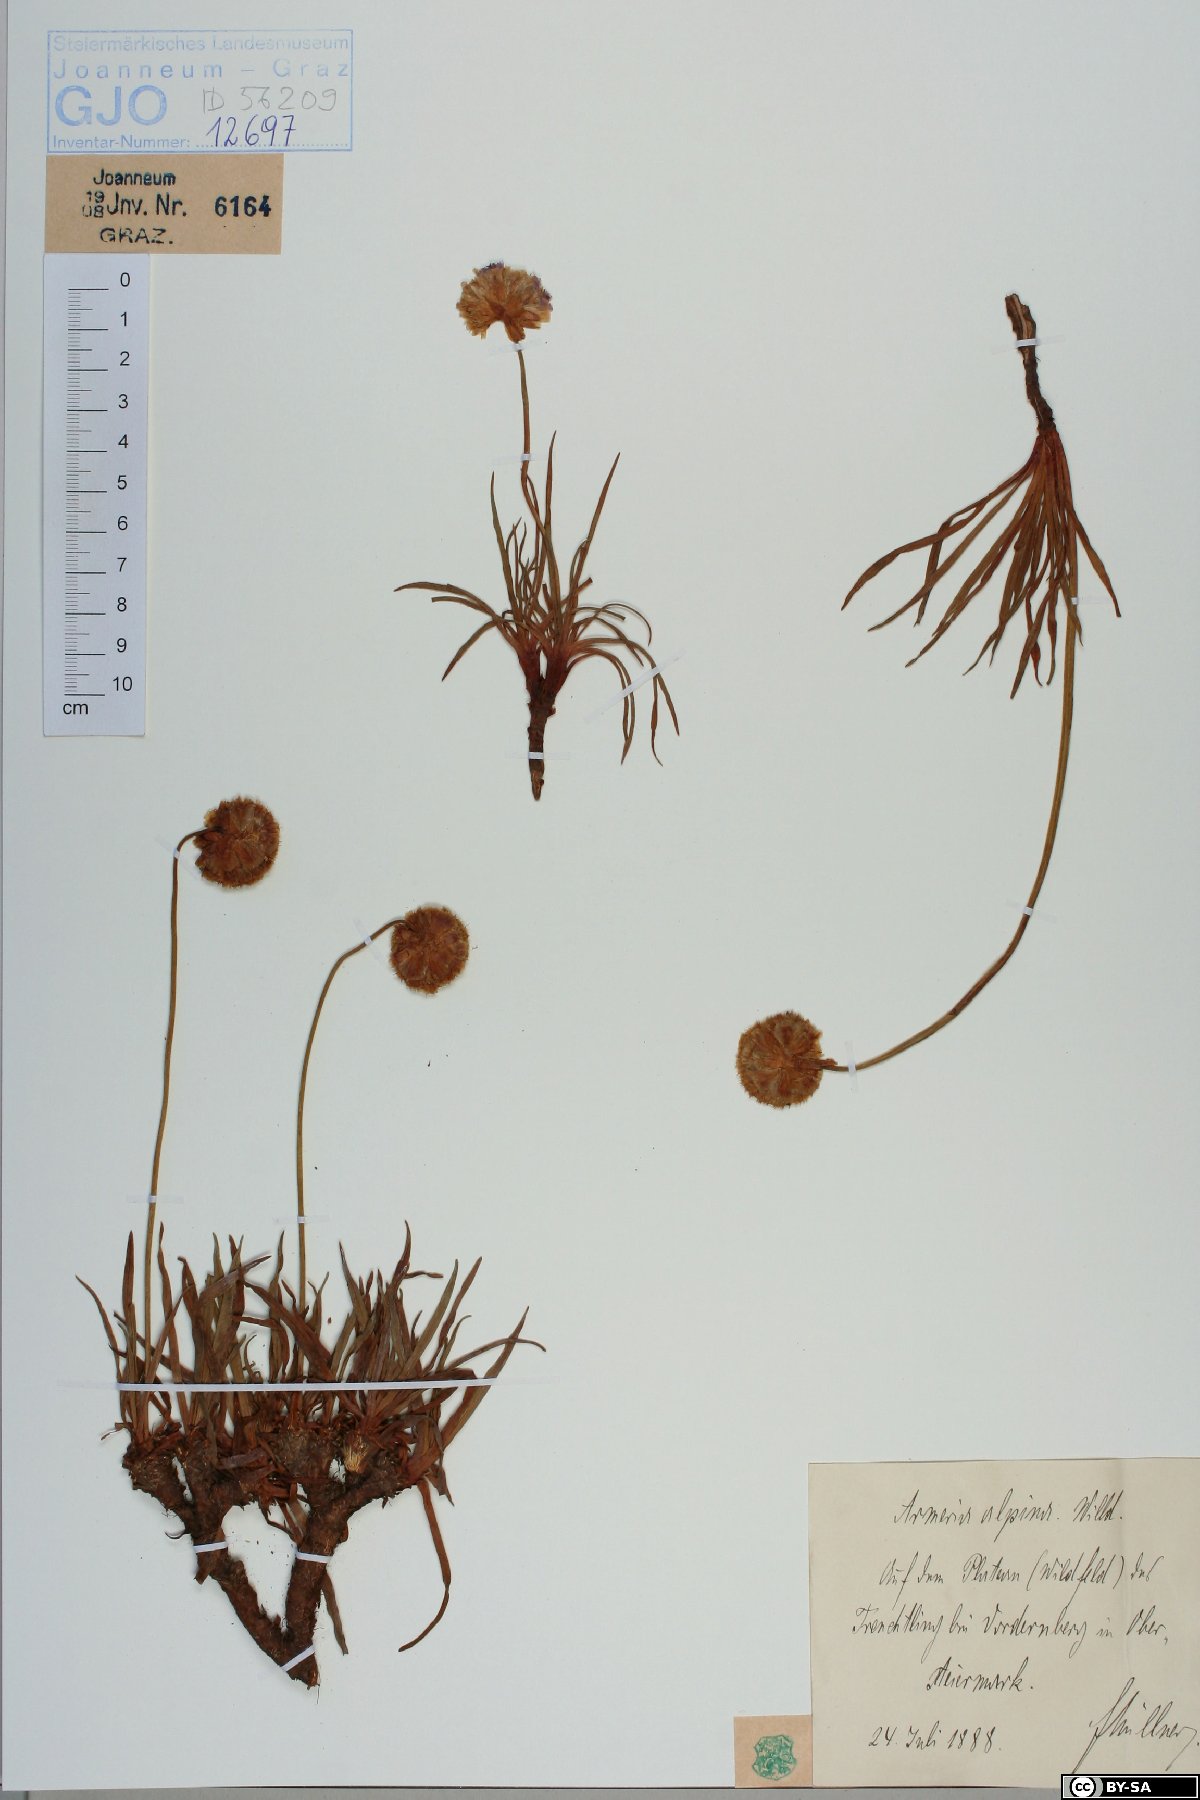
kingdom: Plantae
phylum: Tracheophyta
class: Magnoliopsida
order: Caryophyllales
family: Plumbaginaceae
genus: Armeria
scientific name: Armeria alpina
